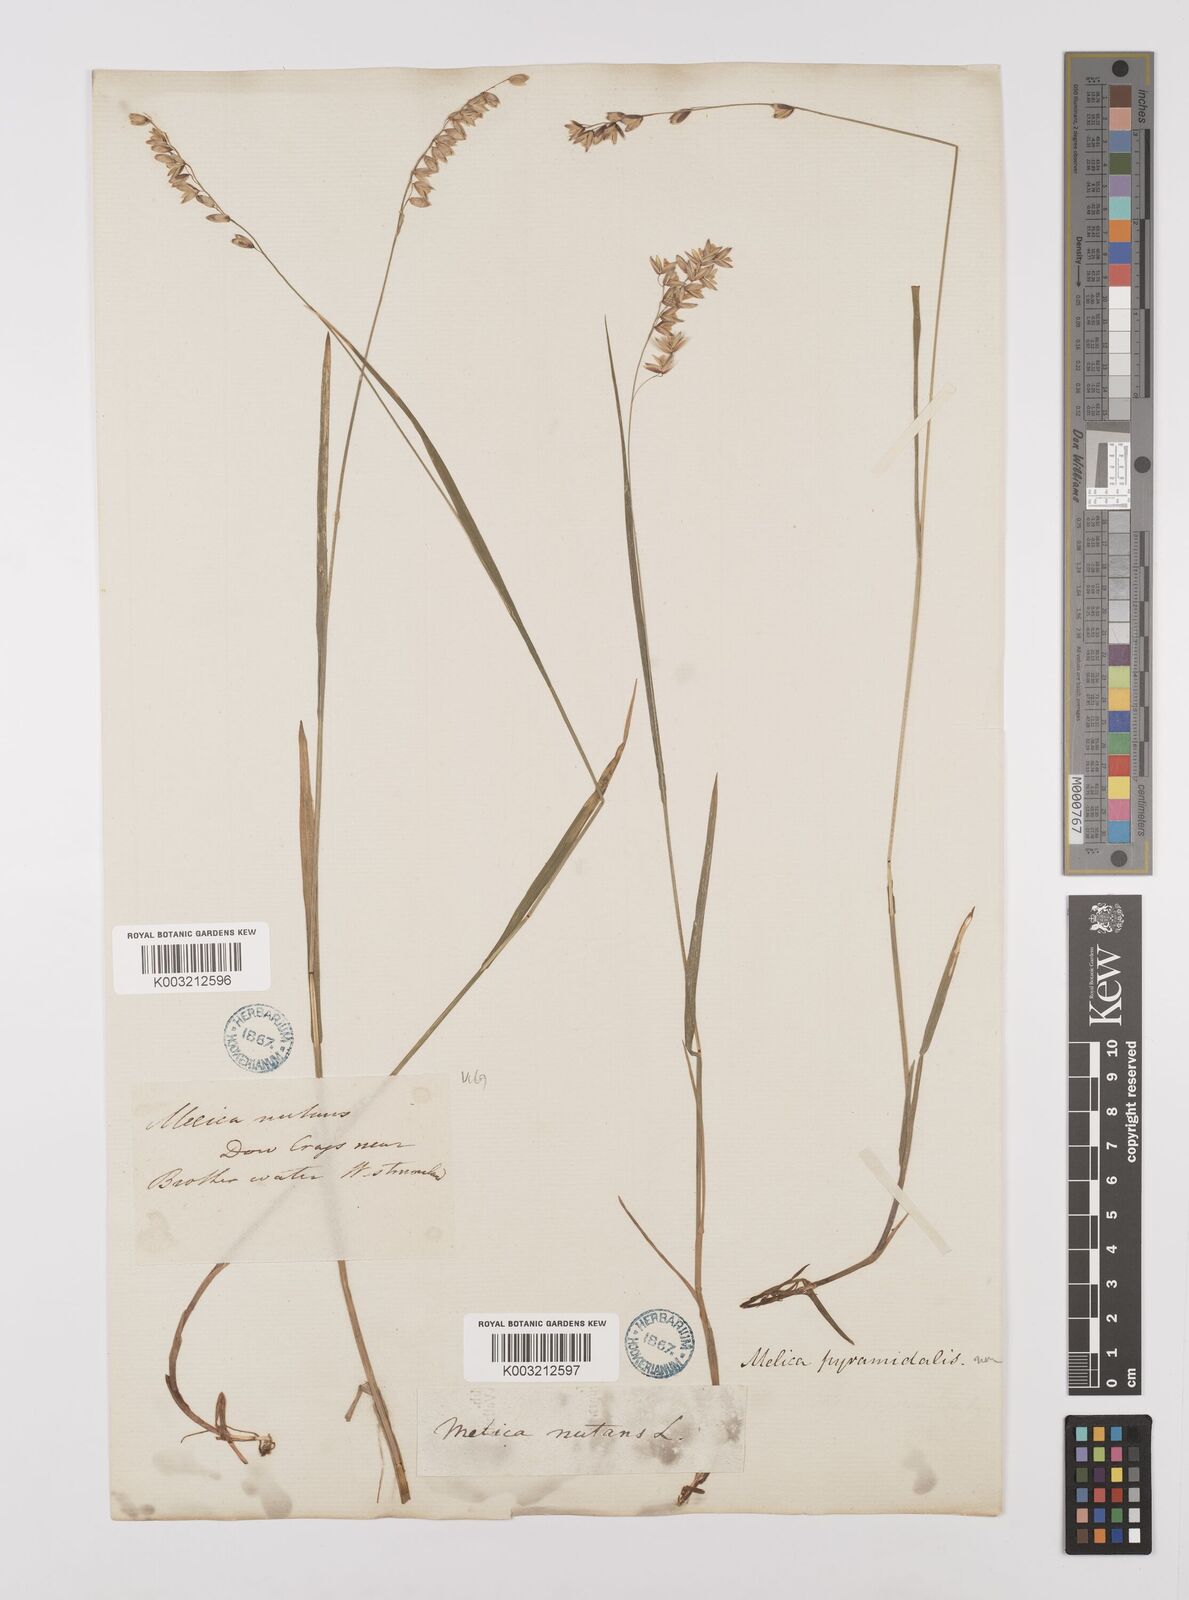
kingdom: Plantae
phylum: Tracheophyta
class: Liliopsida
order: Poales
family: Poaceae
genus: Melica
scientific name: Melica
